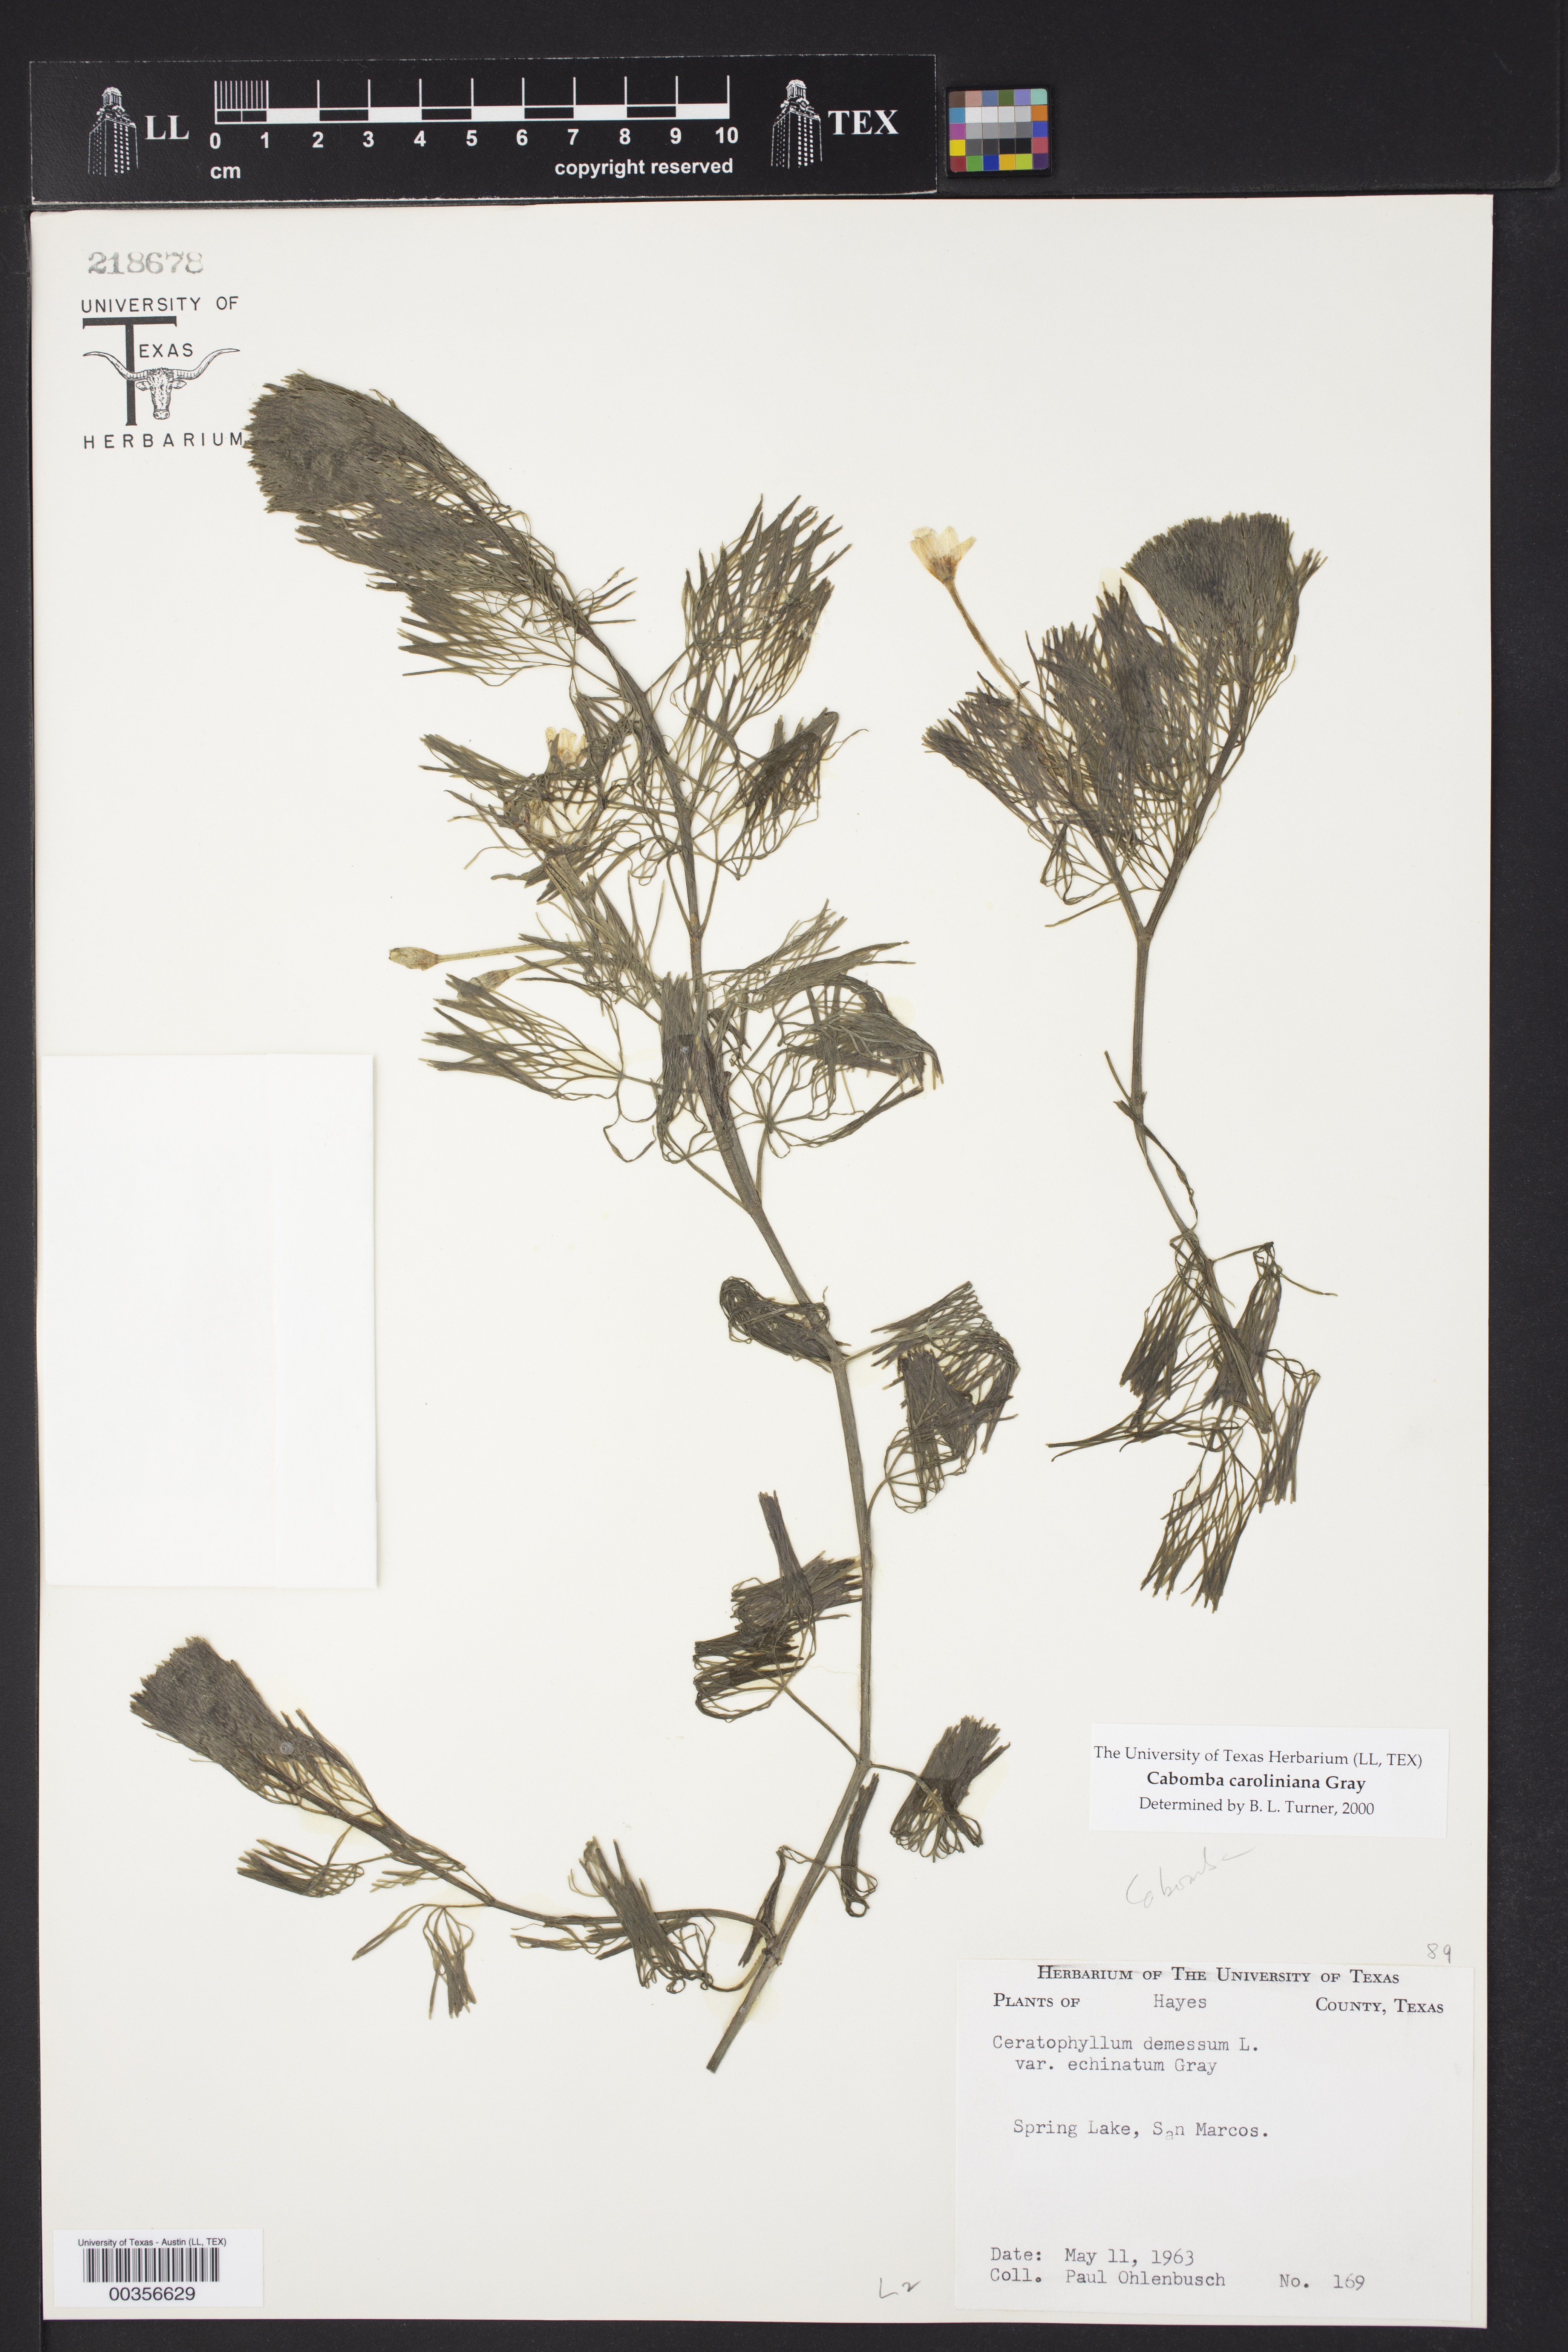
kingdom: Plantae
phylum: Tracheophyta
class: Magnoliopsida
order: Nymphaeales
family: Cabombaceae
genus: Cabomba
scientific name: Cabomba caroliniana
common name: Fanwort
